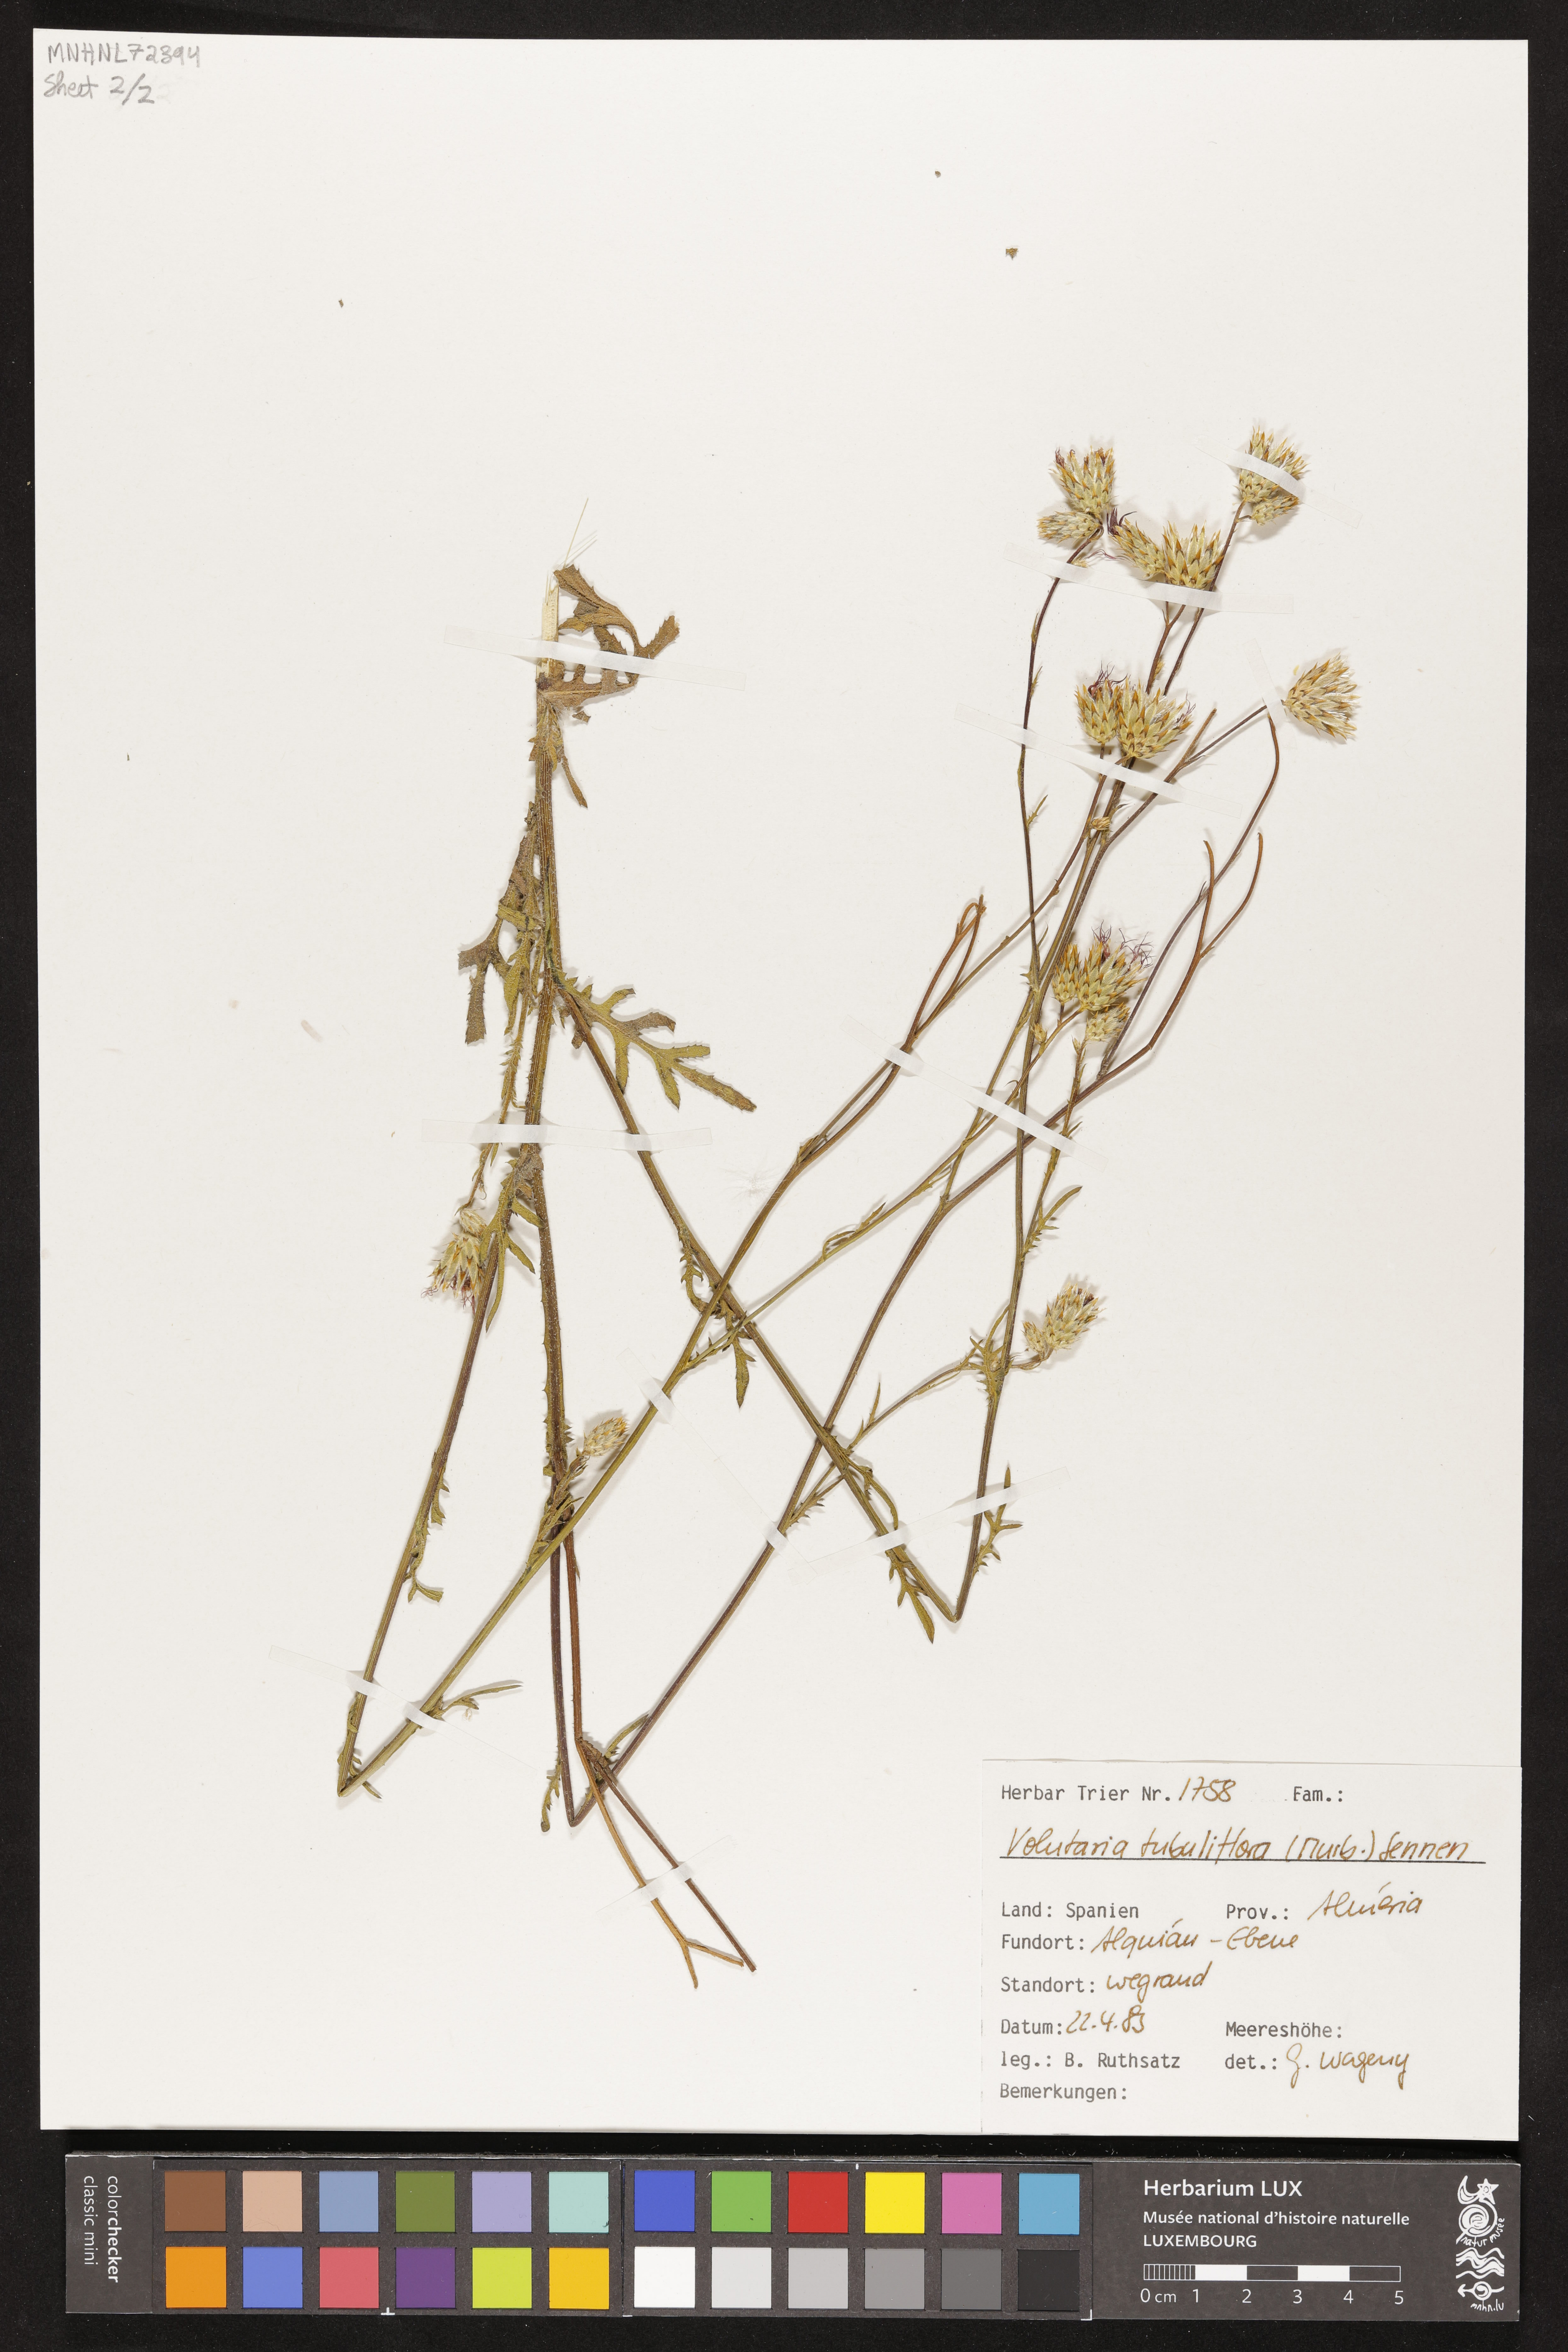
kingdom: Plantae
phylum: Tracheophyta
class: Magnoliopsida
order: Asterales
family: Asteraceae
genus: Volutaria
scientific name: Volutaria tubuliflora
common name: Desert knapweed
